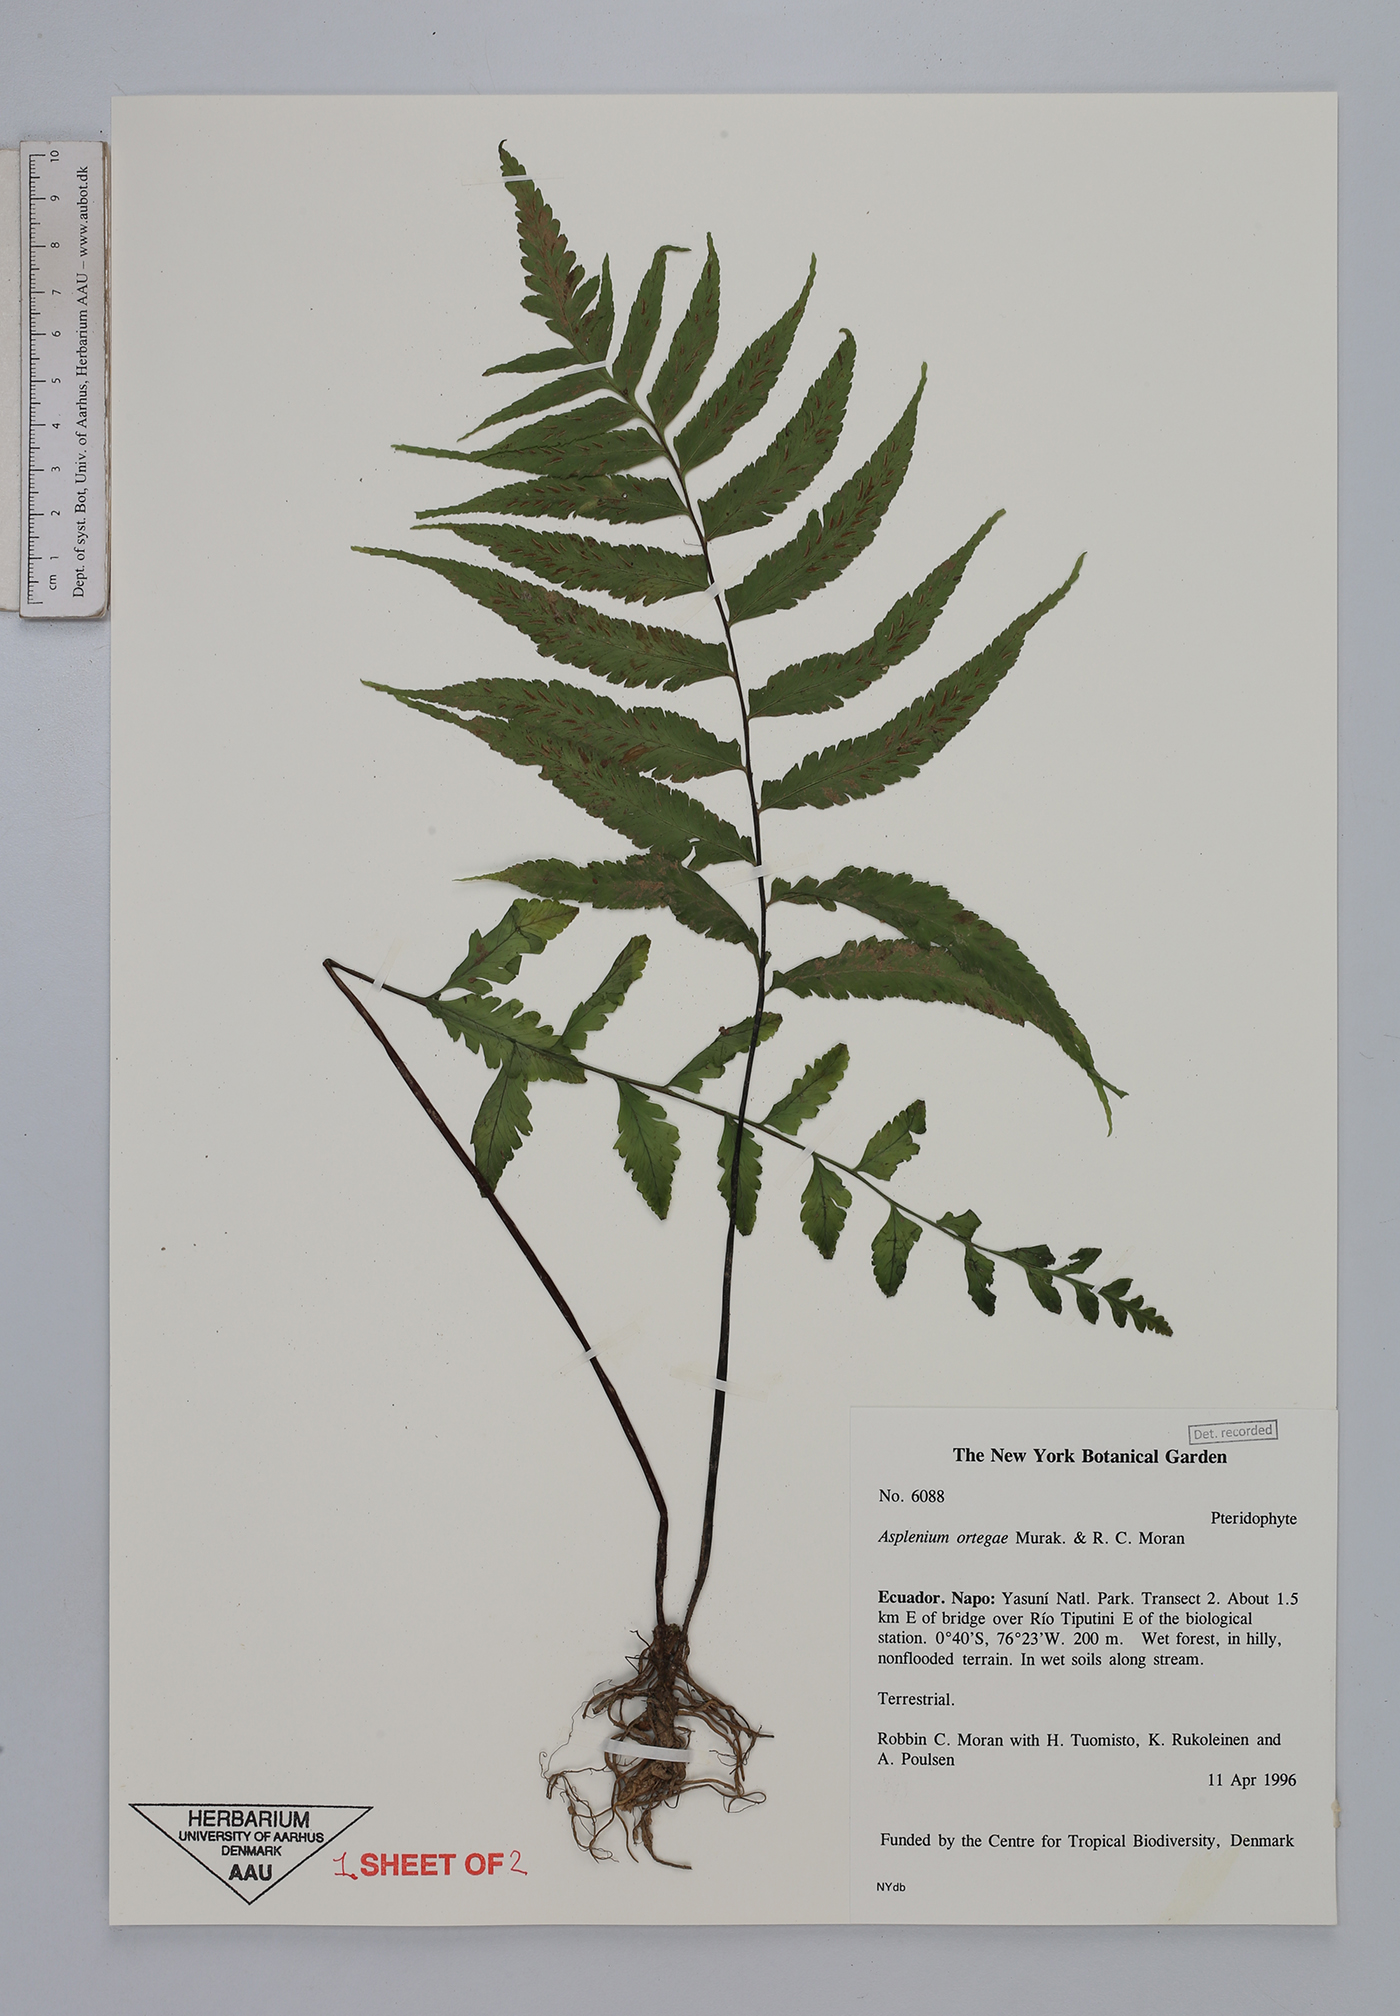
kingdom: Plantae
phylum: Tracheophyta
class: Polypodiopsida
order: Polypodiales
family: Aspleniaceae
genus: Hymenasplenium
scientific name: Hymenasplenium ortegae
